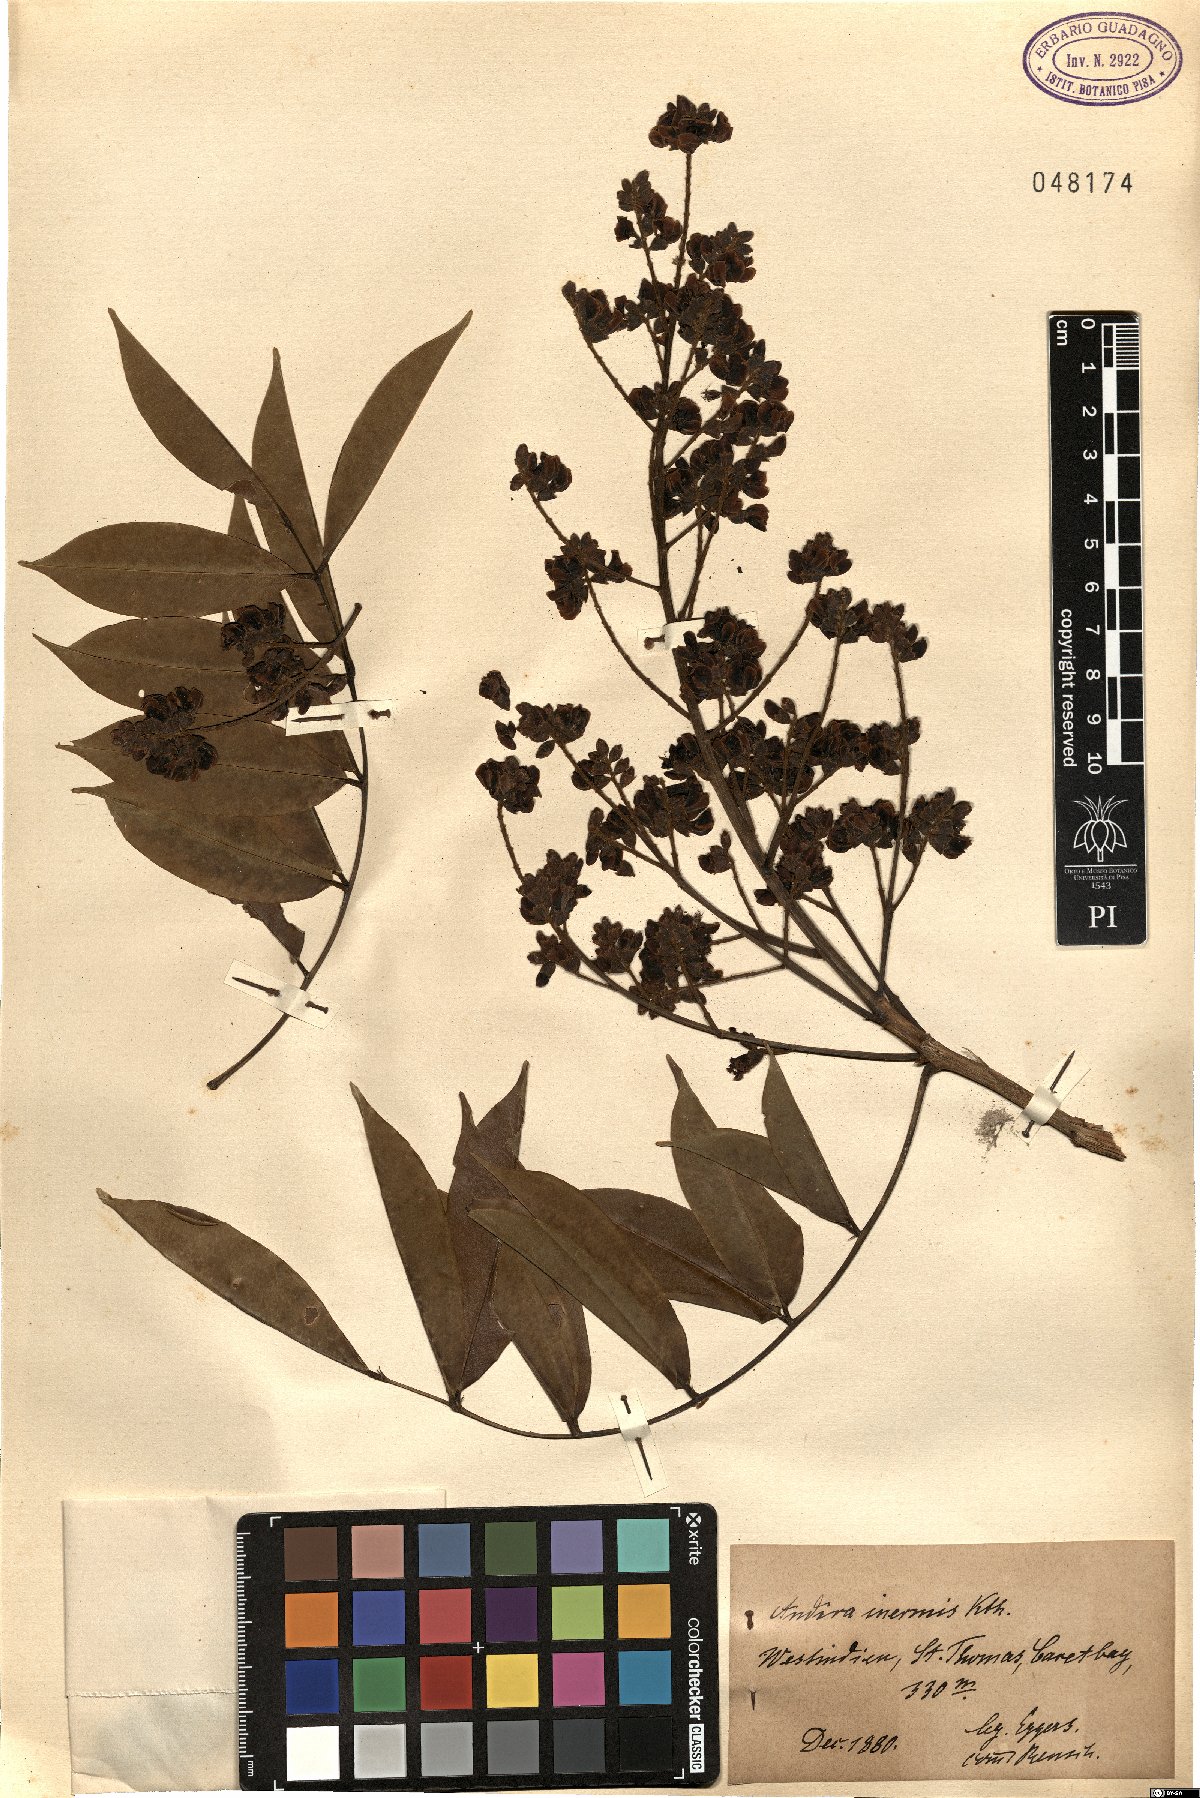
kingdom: Plantae
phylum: Tracheophyta
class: Magnoliopsida
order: Fabales
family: Fabaceae
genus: Andira
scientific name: Andira inermis
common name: Angelin
